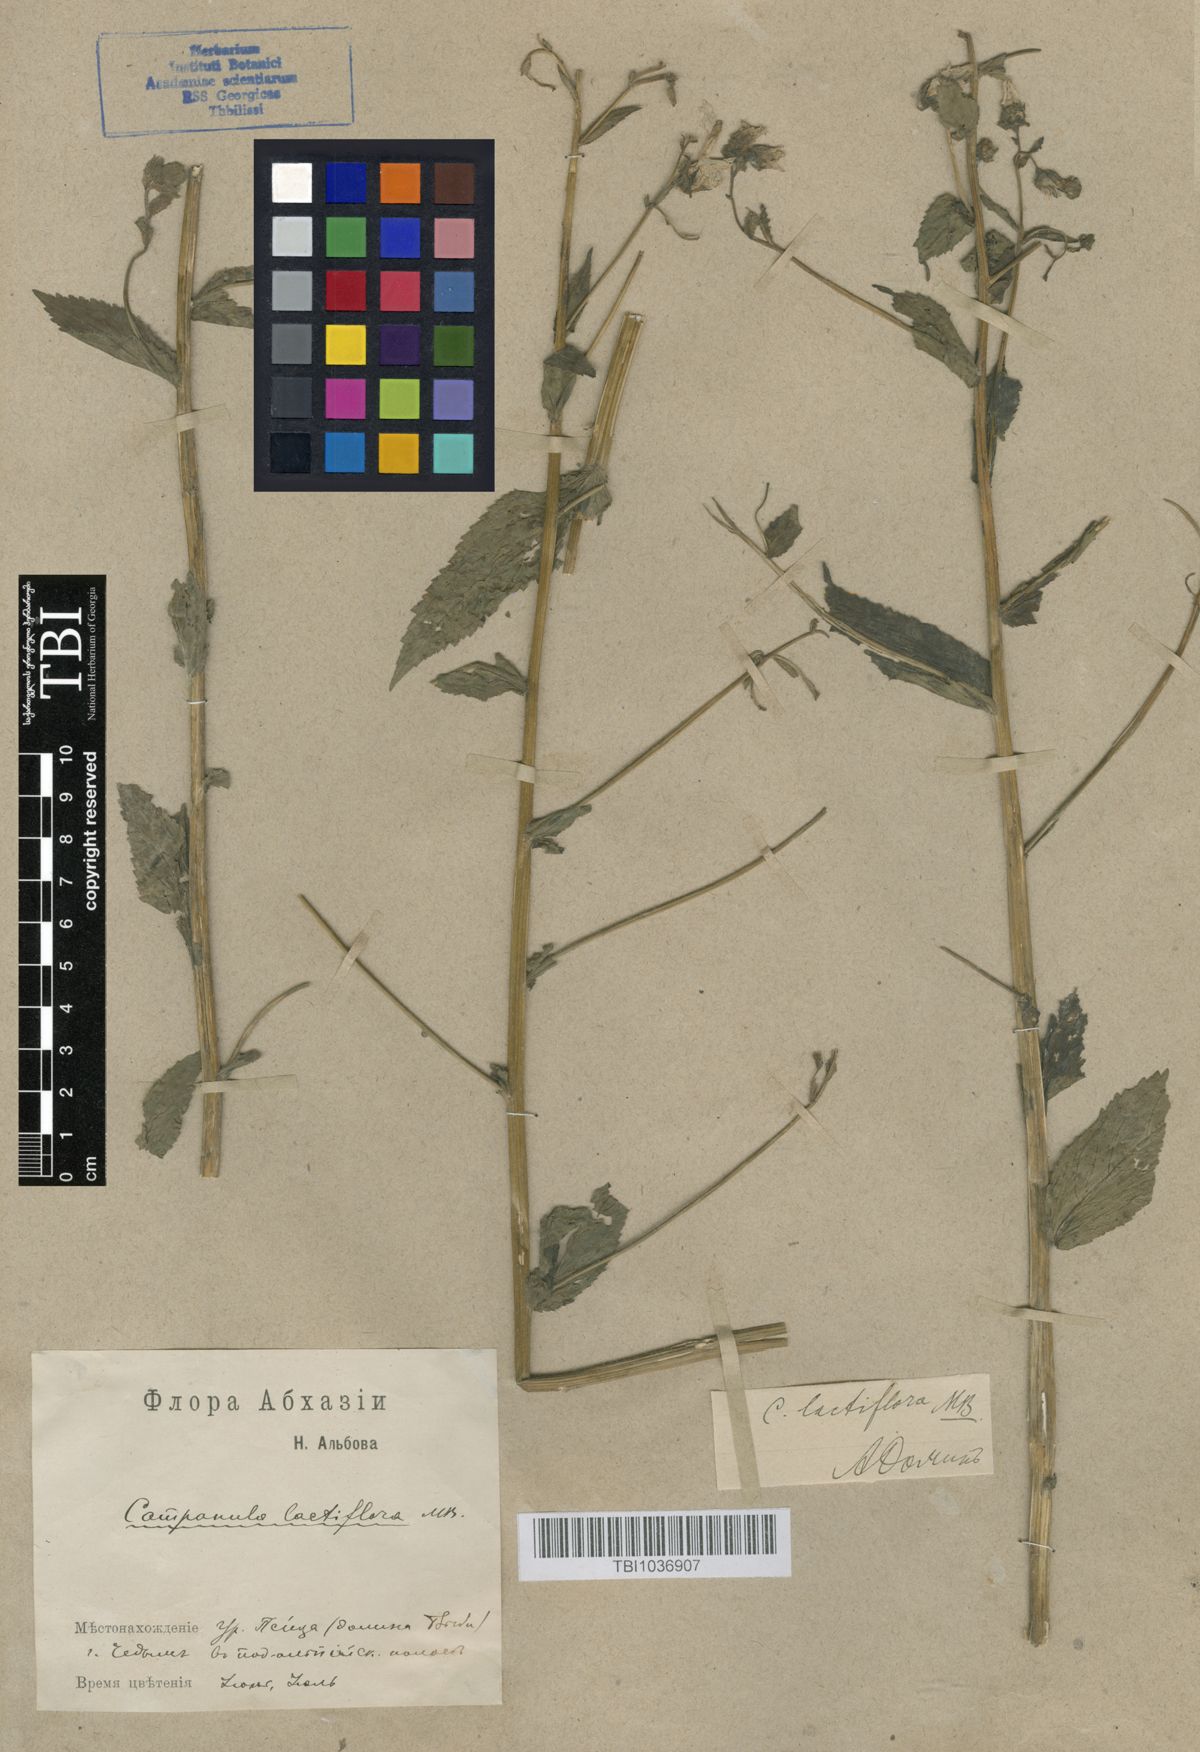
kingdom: Plantae
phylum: Tracheophyta
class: Magnoliopsida
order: Asterales
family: Campanulaceae
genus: Campanula
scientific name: Campanula lactiflora
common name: Milky bellflower
